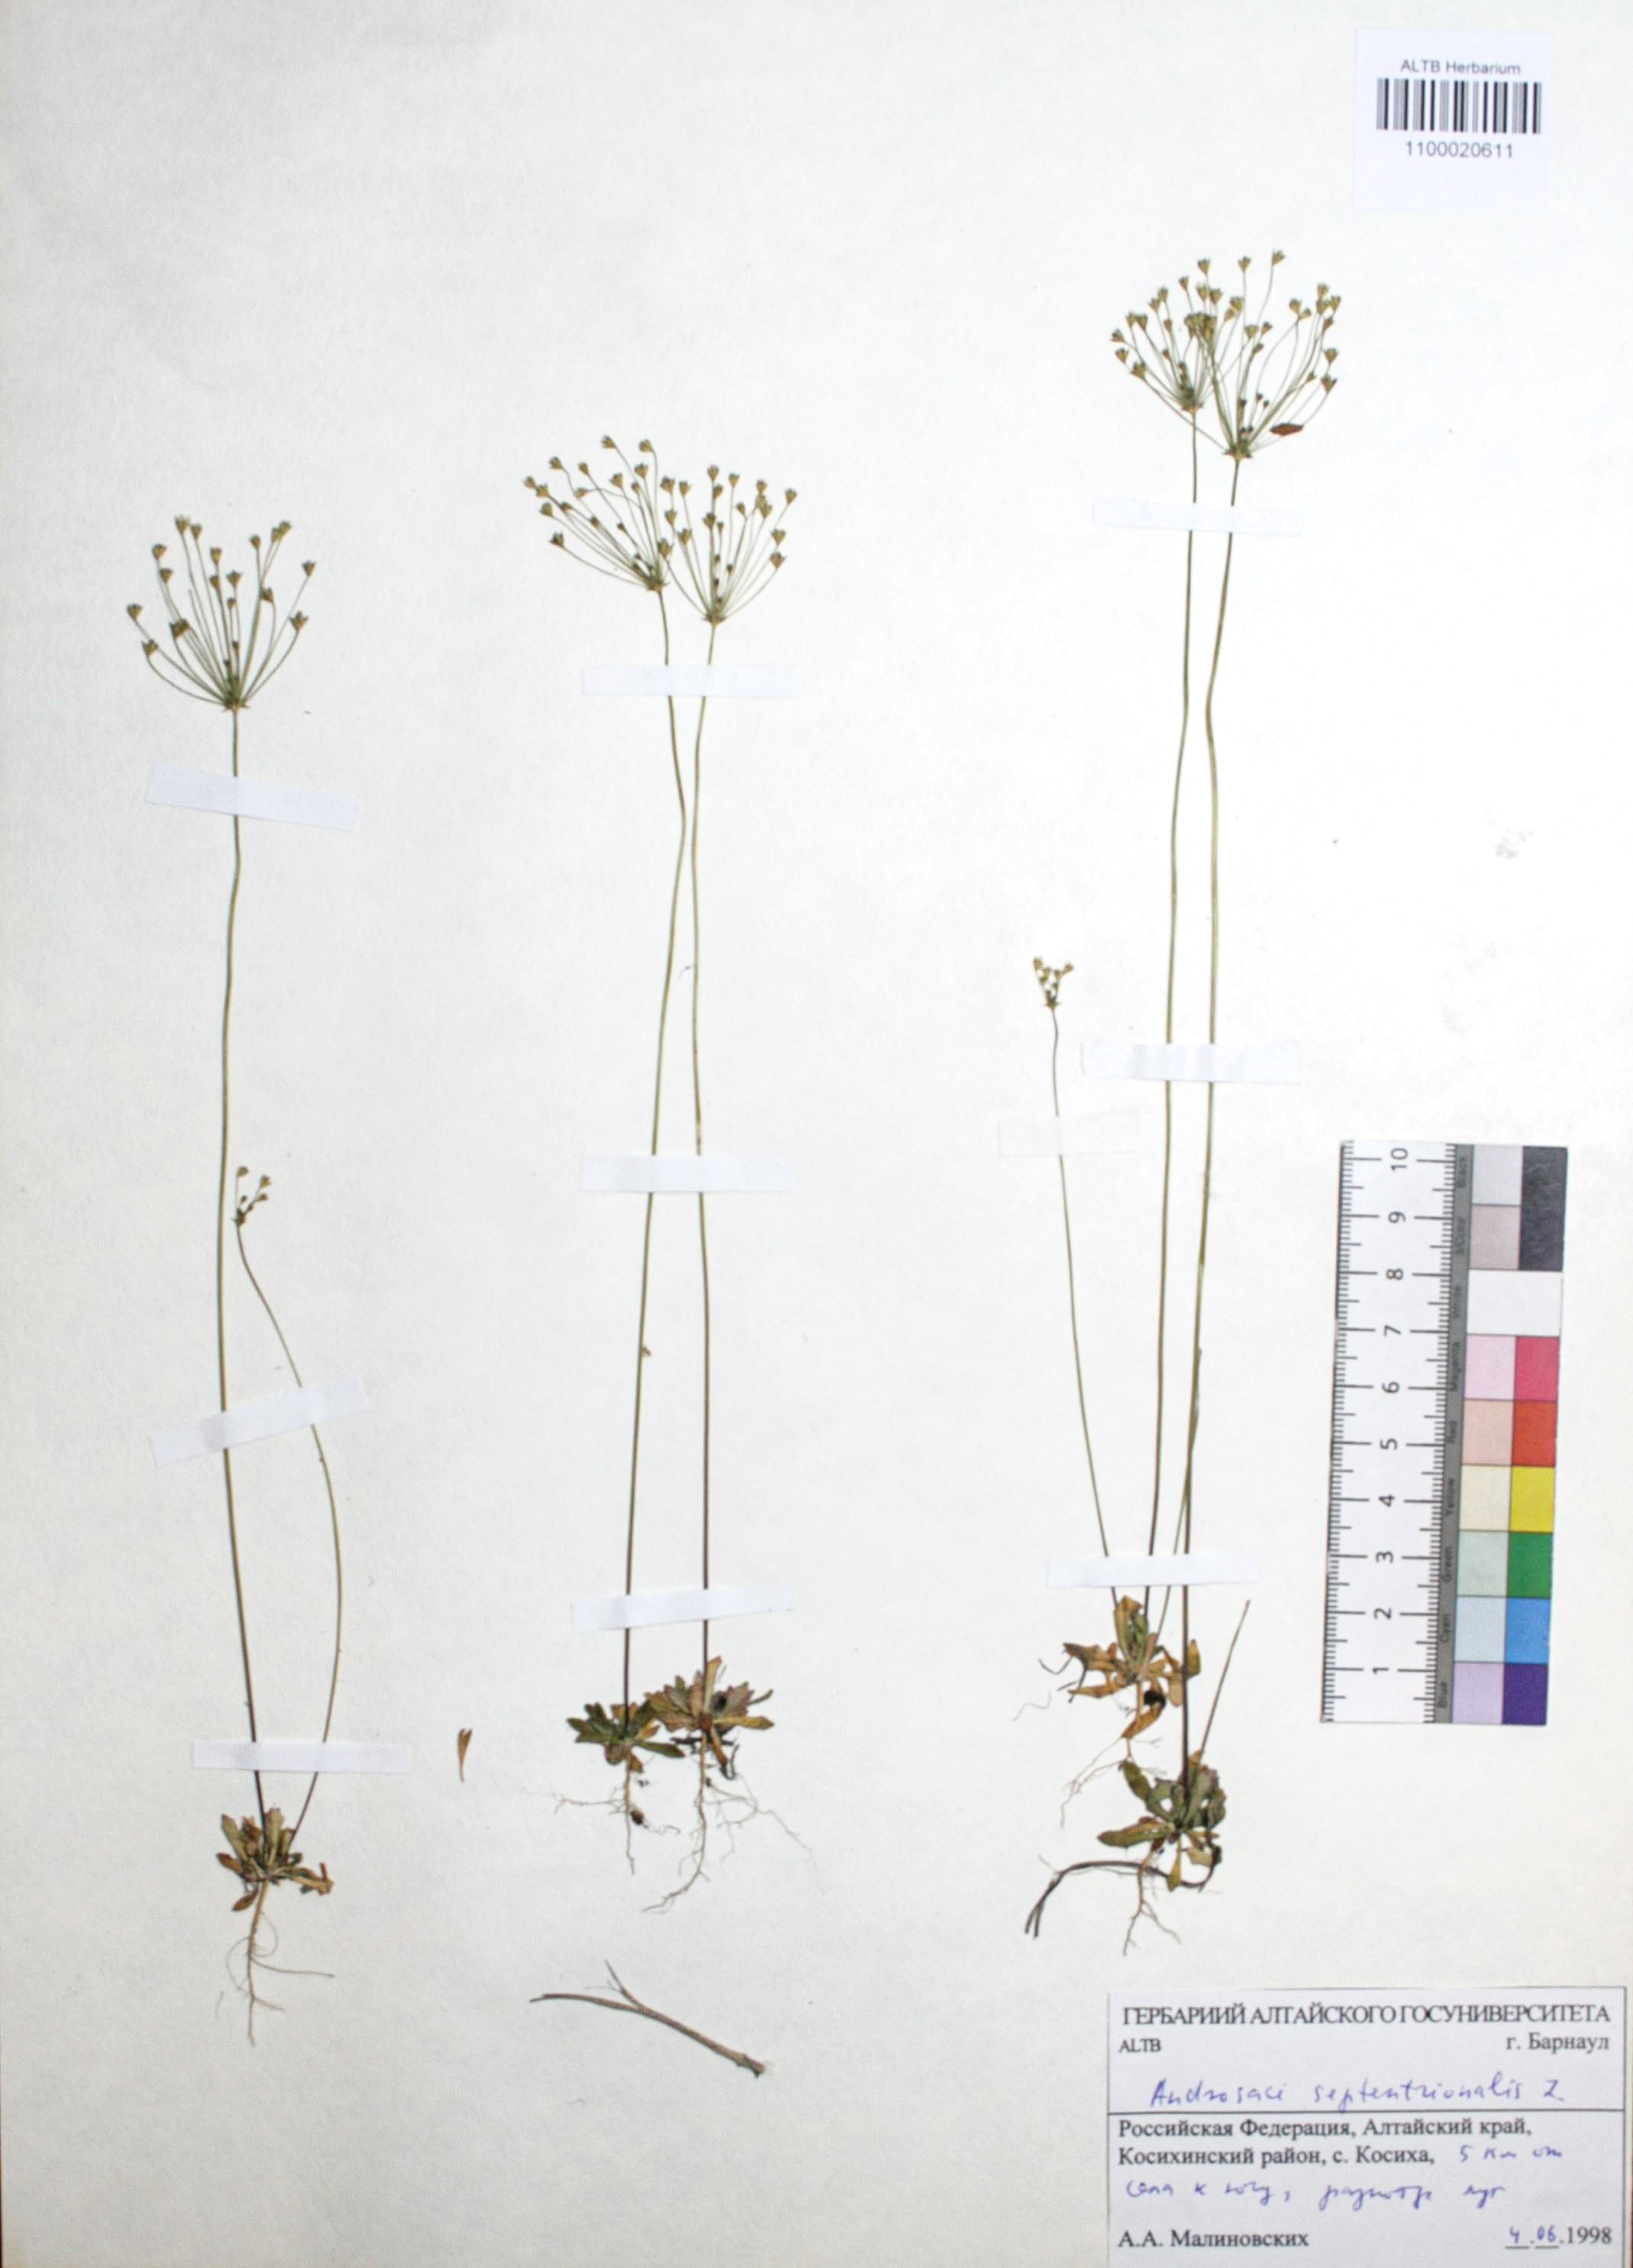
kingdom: Plantae
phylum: Tracheophyta
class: Magnoliopsida
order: Ericales
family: Primulaceae
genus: Androsace
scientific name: Androsace septentrionalis
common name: Hairy northern fairy-candelabra
